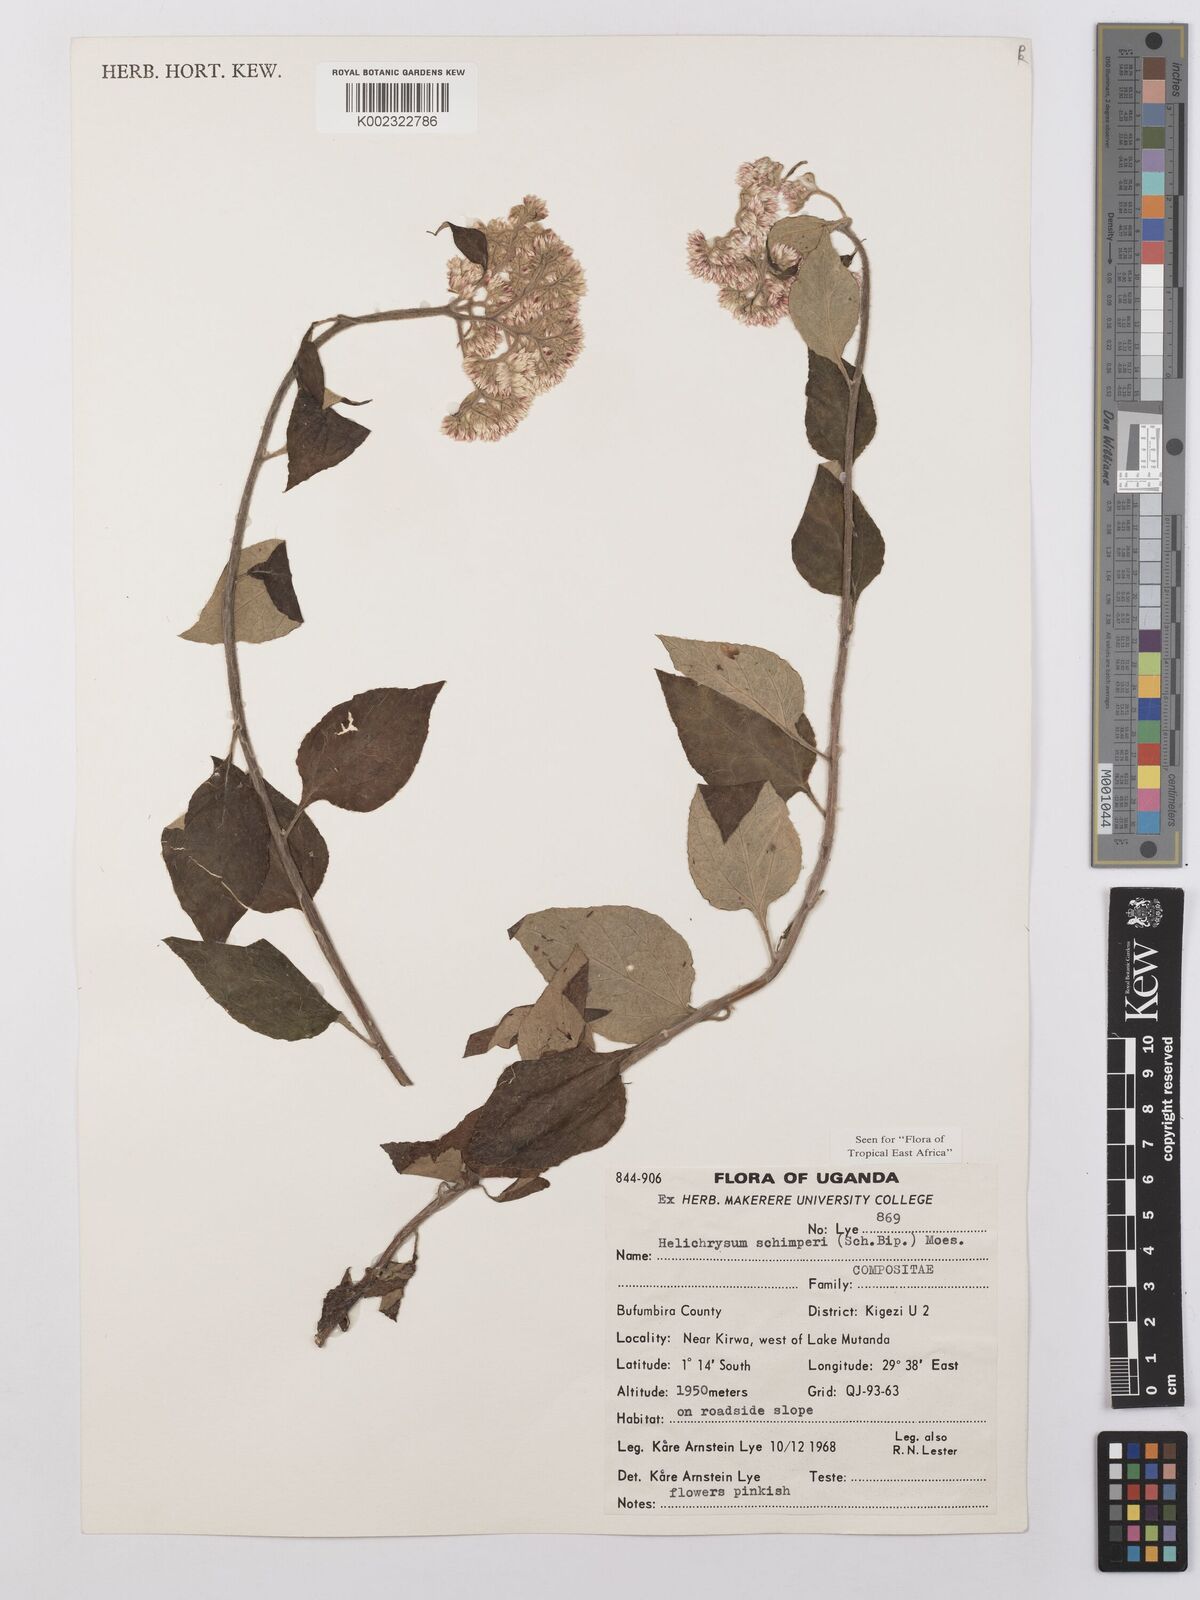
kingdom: Plantae
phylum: Tracheophyta
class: Magnoliopsida
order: Asterales
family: Asteraceae
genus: Helichrysum
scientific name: Helichrysum schimperi
